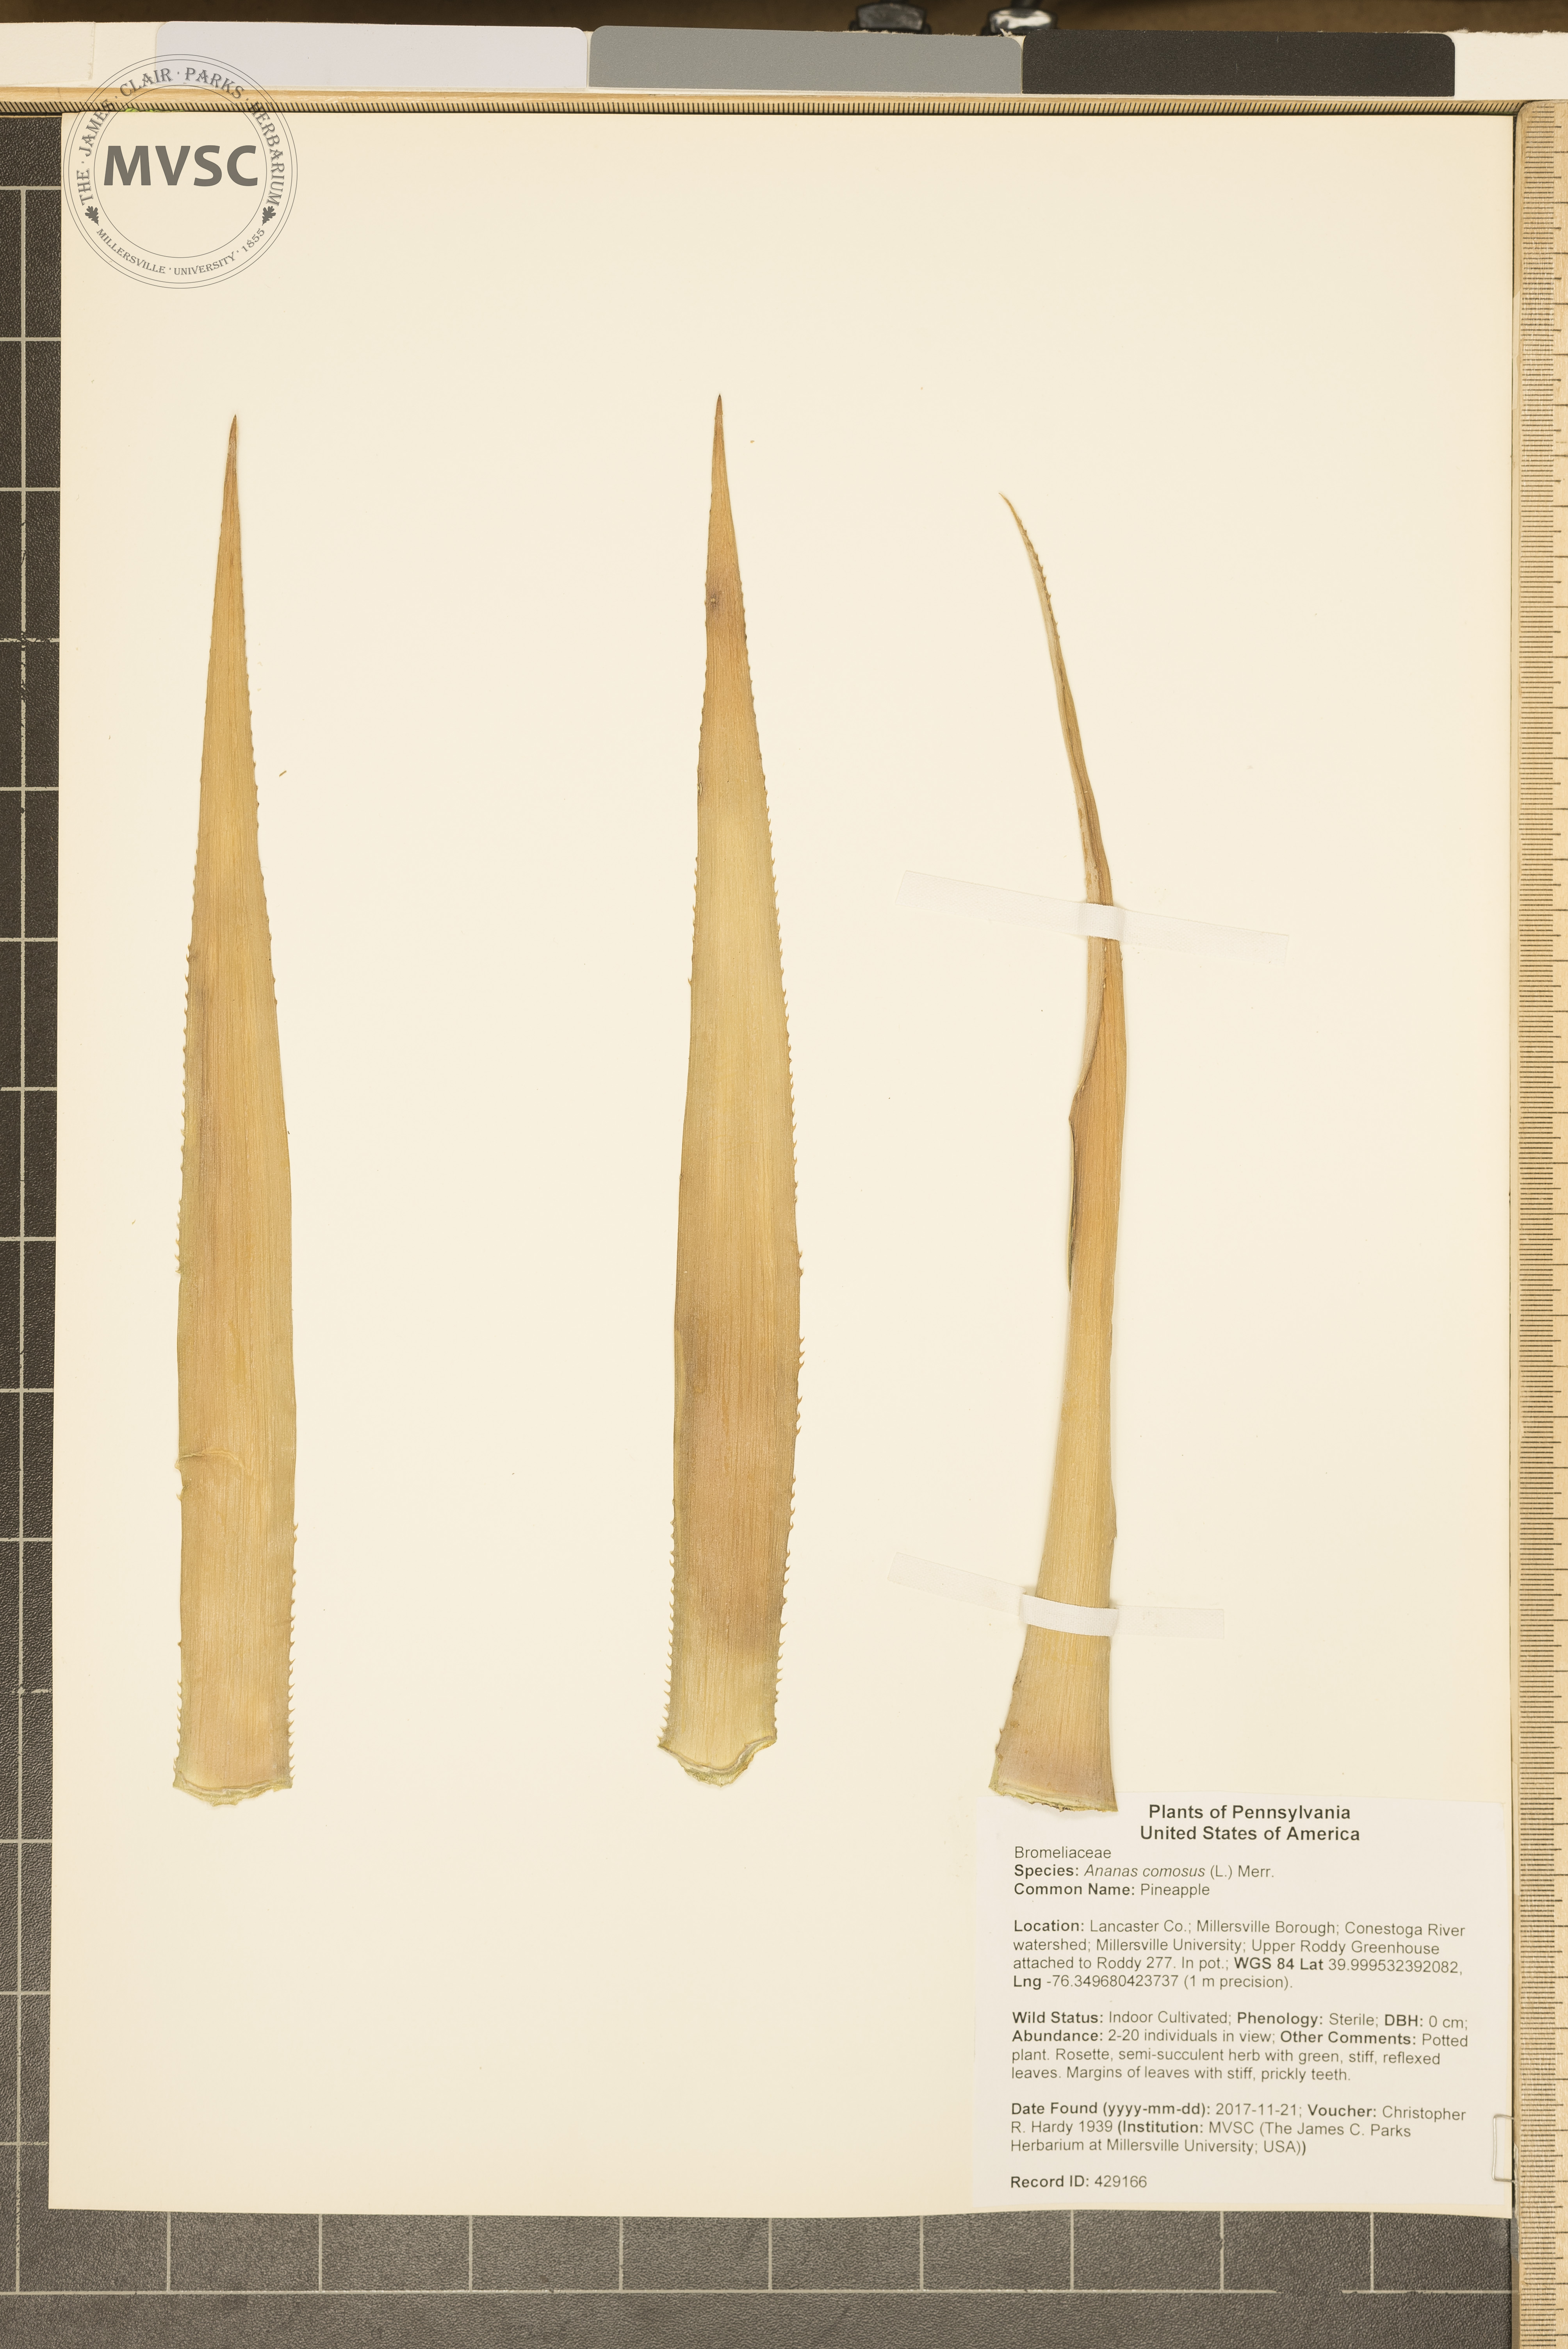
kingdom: Plantae
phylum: Tracheophyta
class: Liliopsida
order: Poales
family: Bromeliaceae
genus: Ananas
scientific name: Ananas comosus
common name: Pineapple
